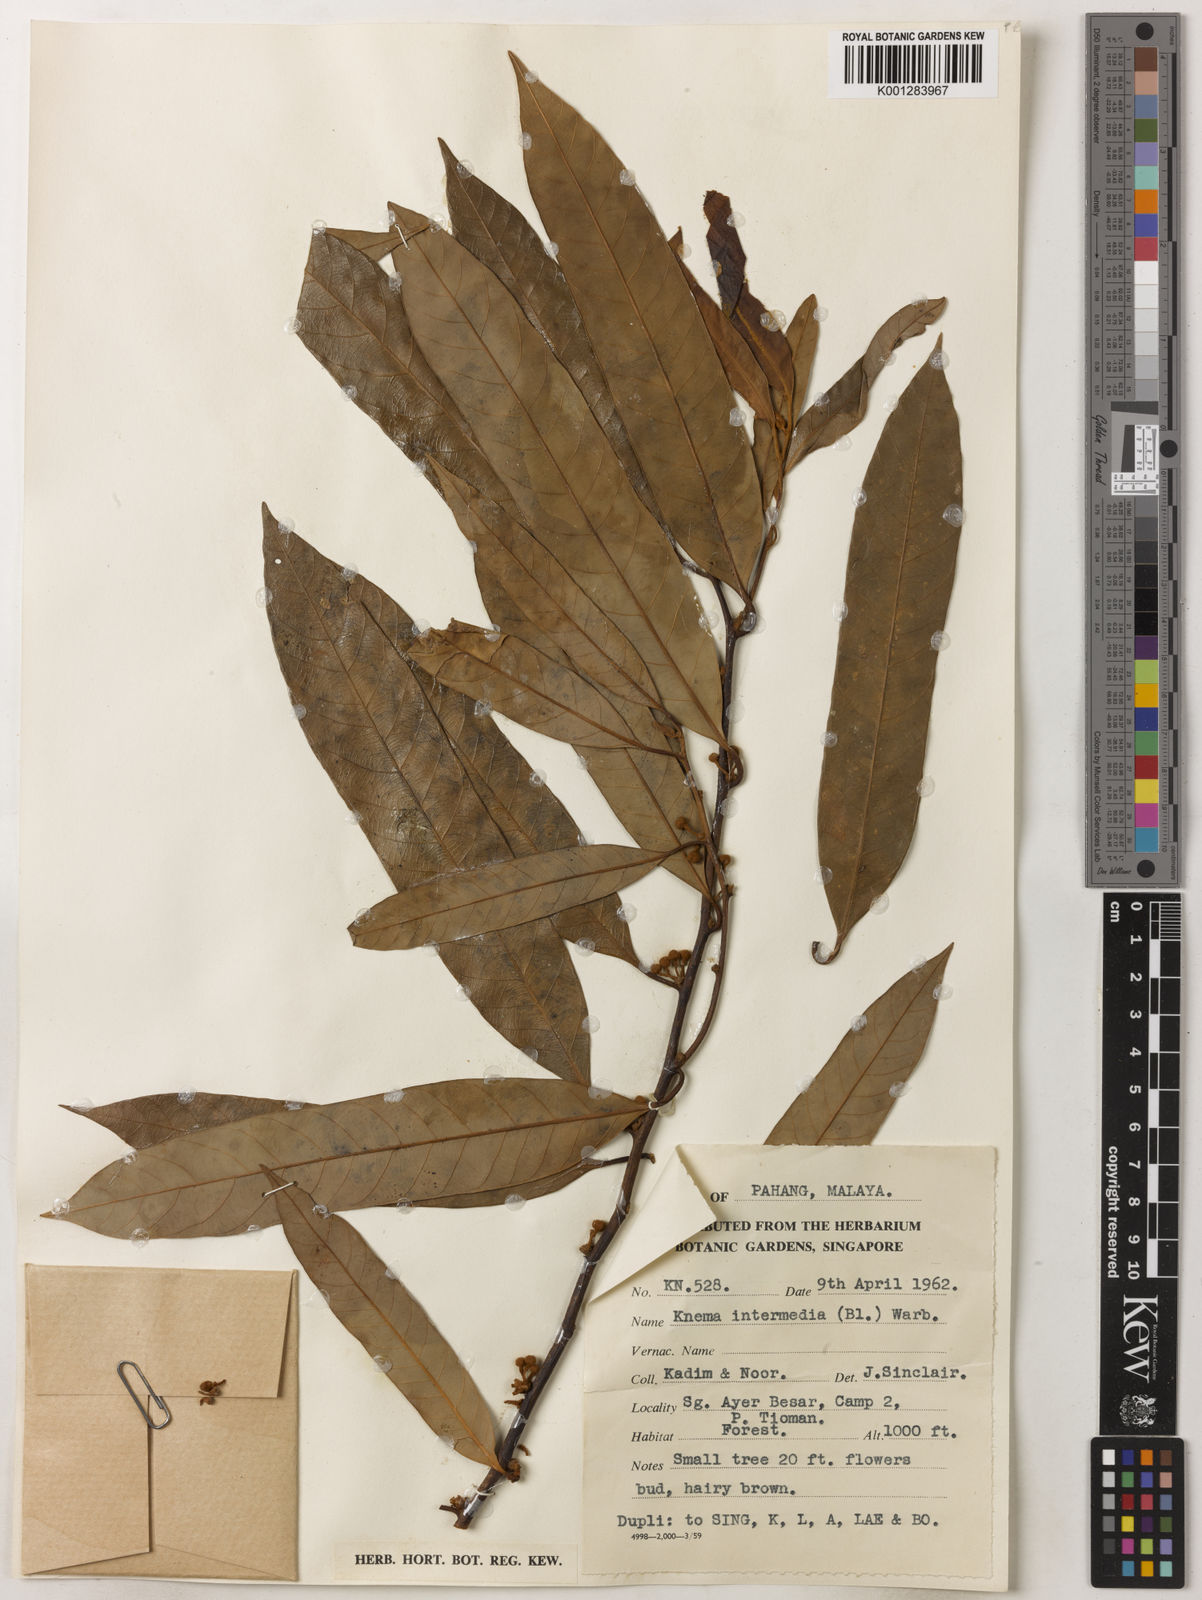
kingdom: Plantae
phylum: Tracheophyta
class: Magnoliopsida
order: Magnoliales
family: Myristicaceae
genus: Knema
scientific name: Knema intermedia
